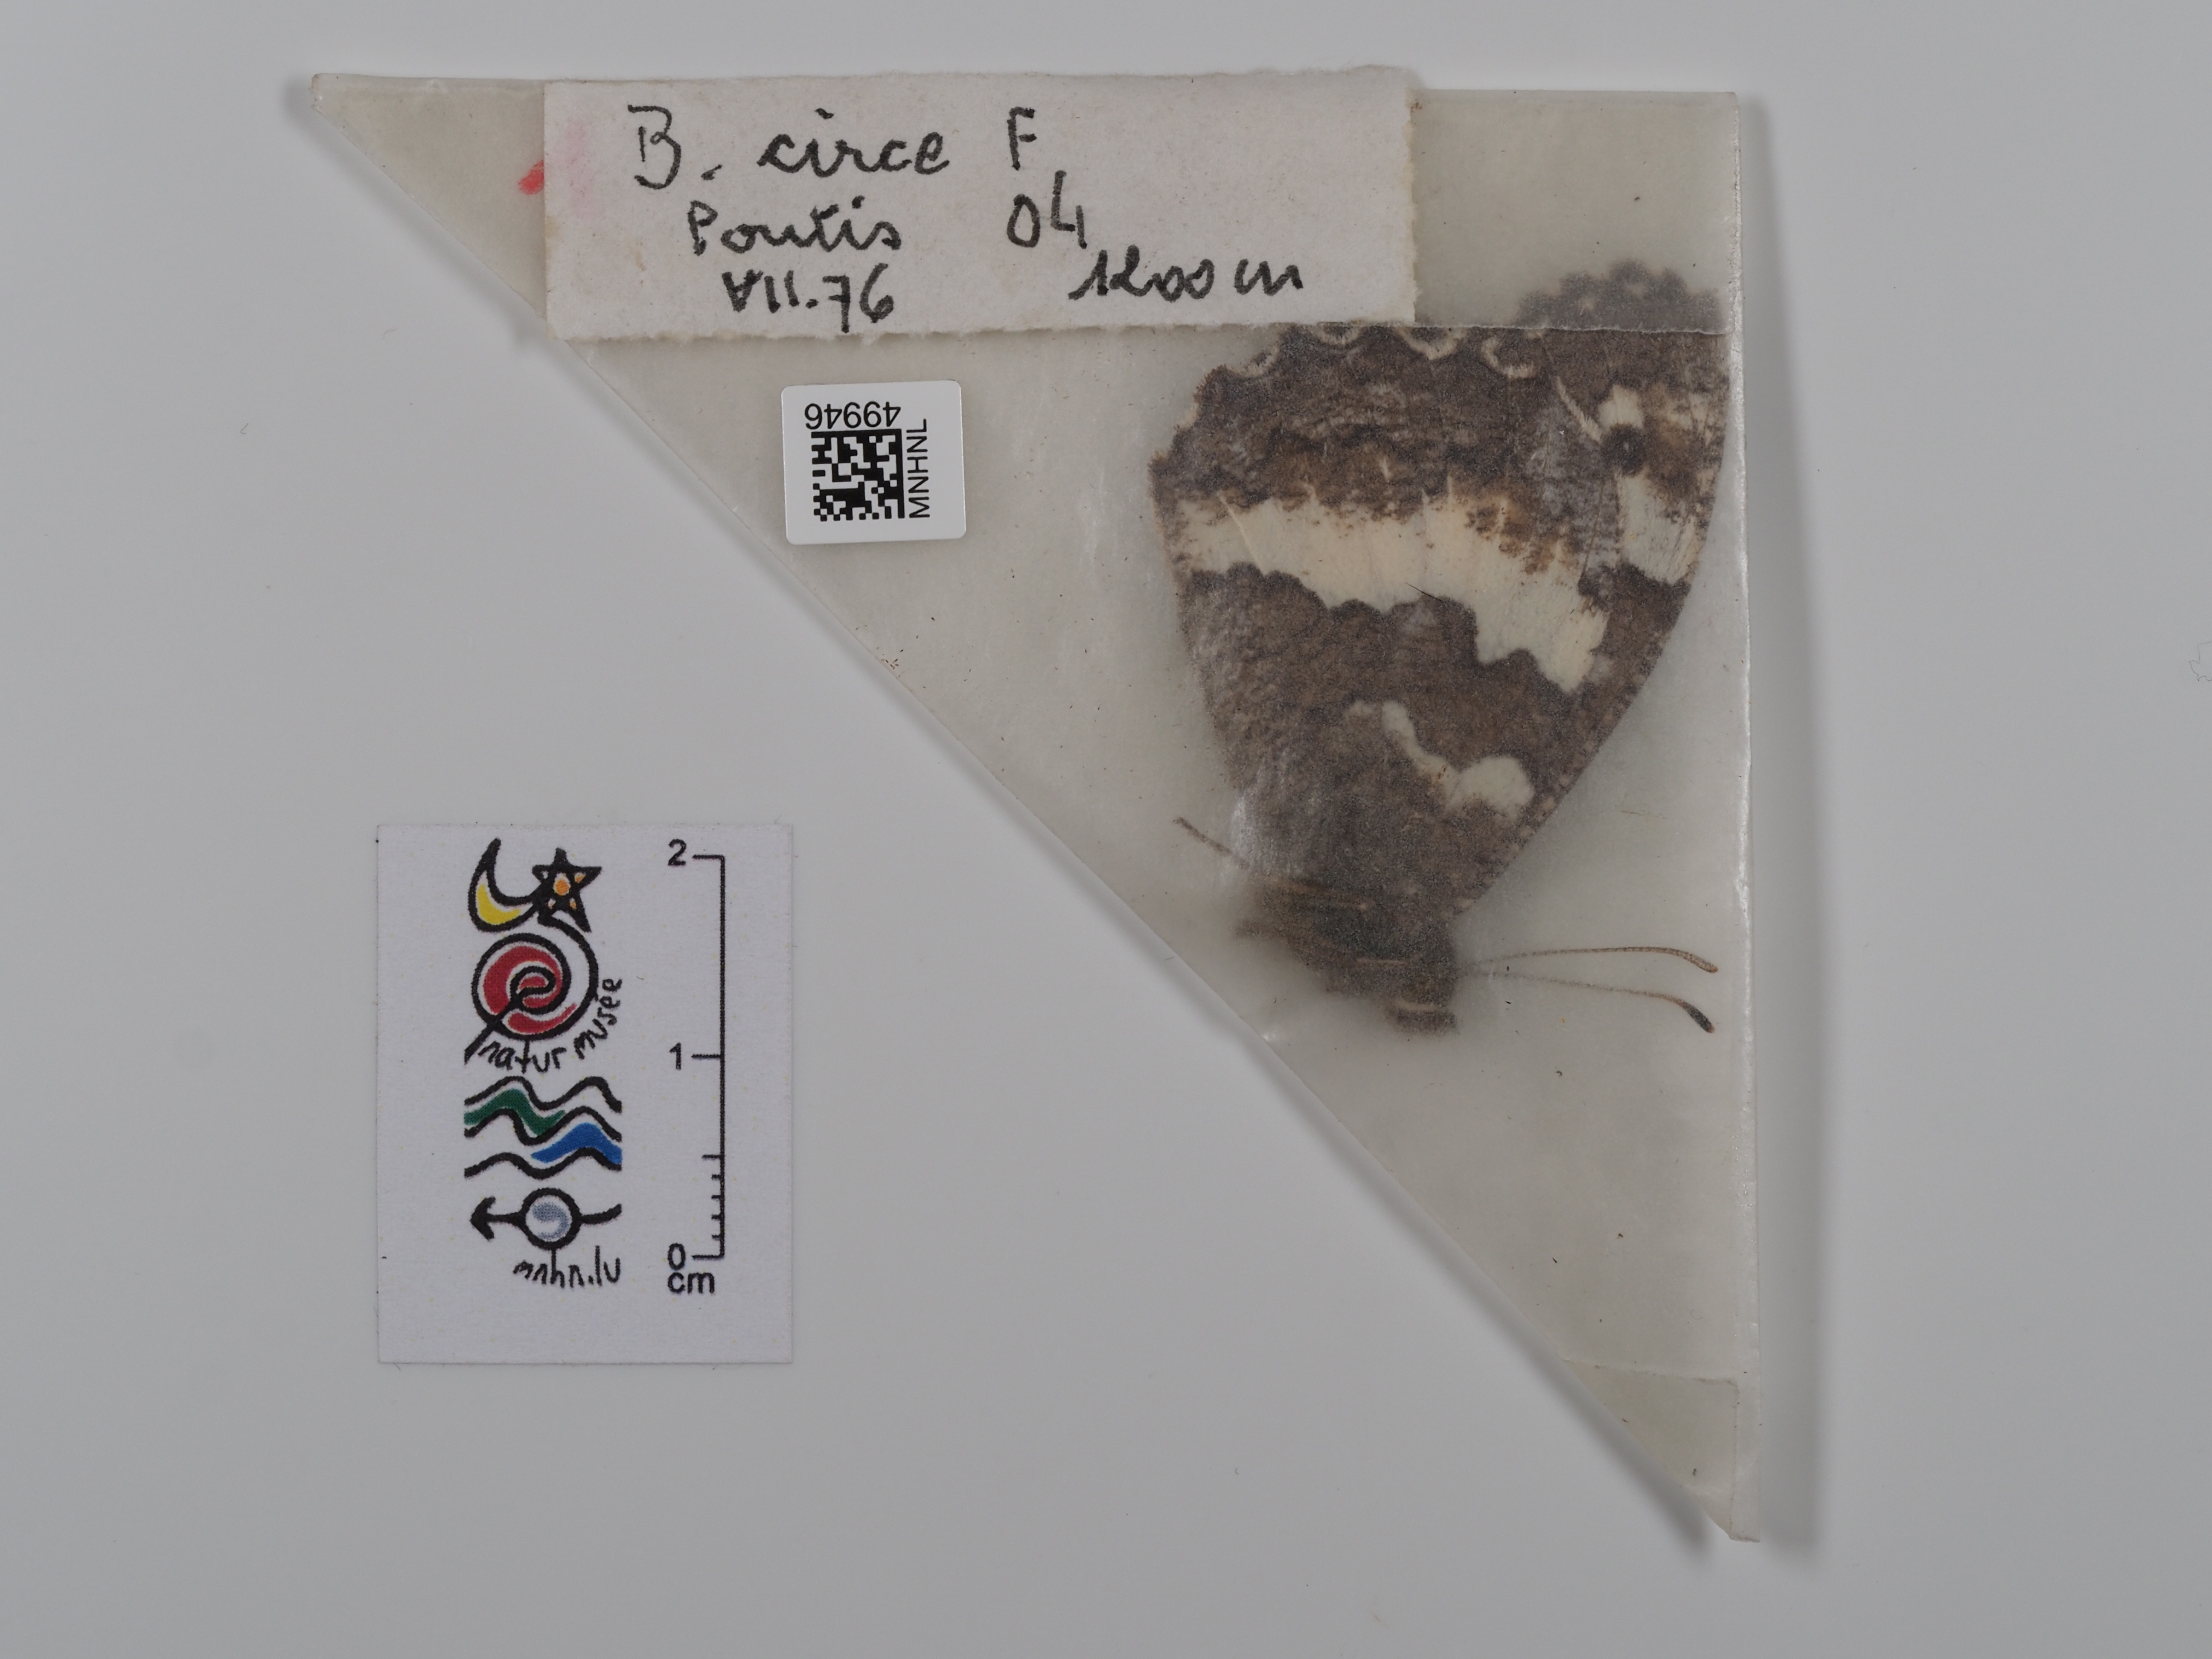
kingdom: Animalia
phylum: Arthropoda
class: Insecta
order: Lepidoptera
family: Lycaenidae
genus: Loweia
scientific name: Loweia tityrus
